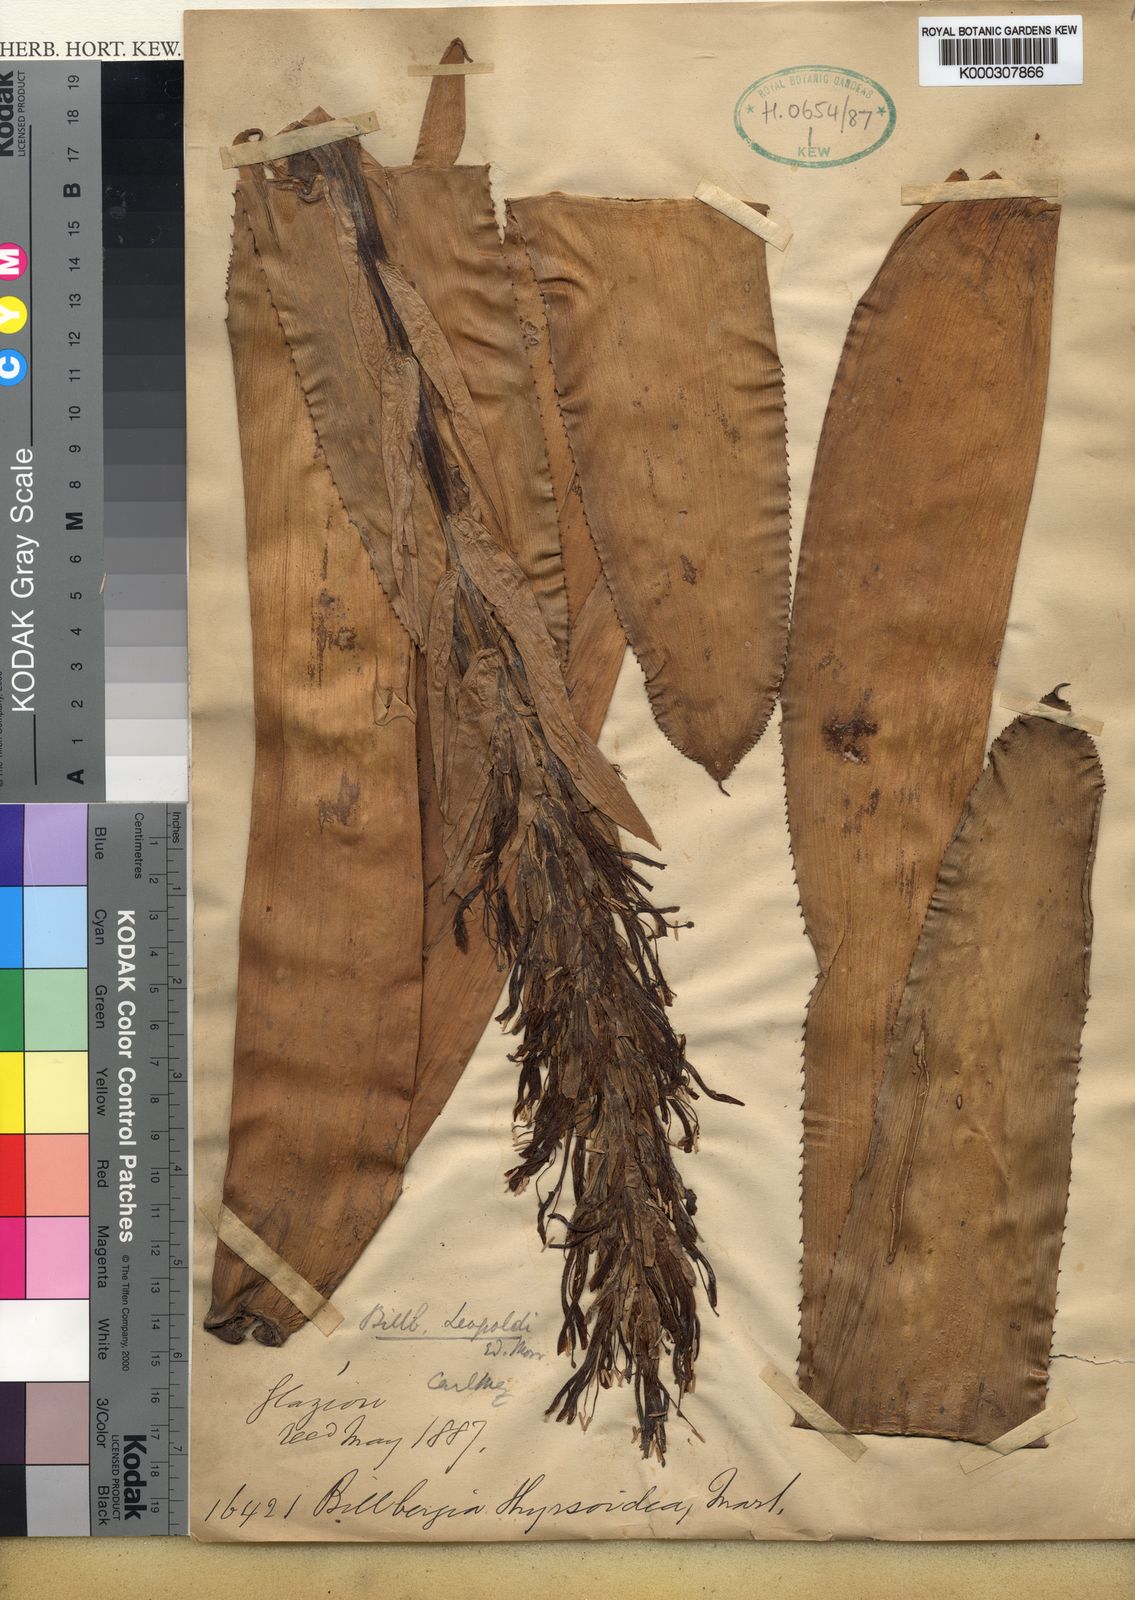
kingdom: Plantae
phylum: Tracheophyta
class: Liliopsida
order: Poales
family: Bromeliaceae
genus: Billbergia
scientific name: Billbergia
